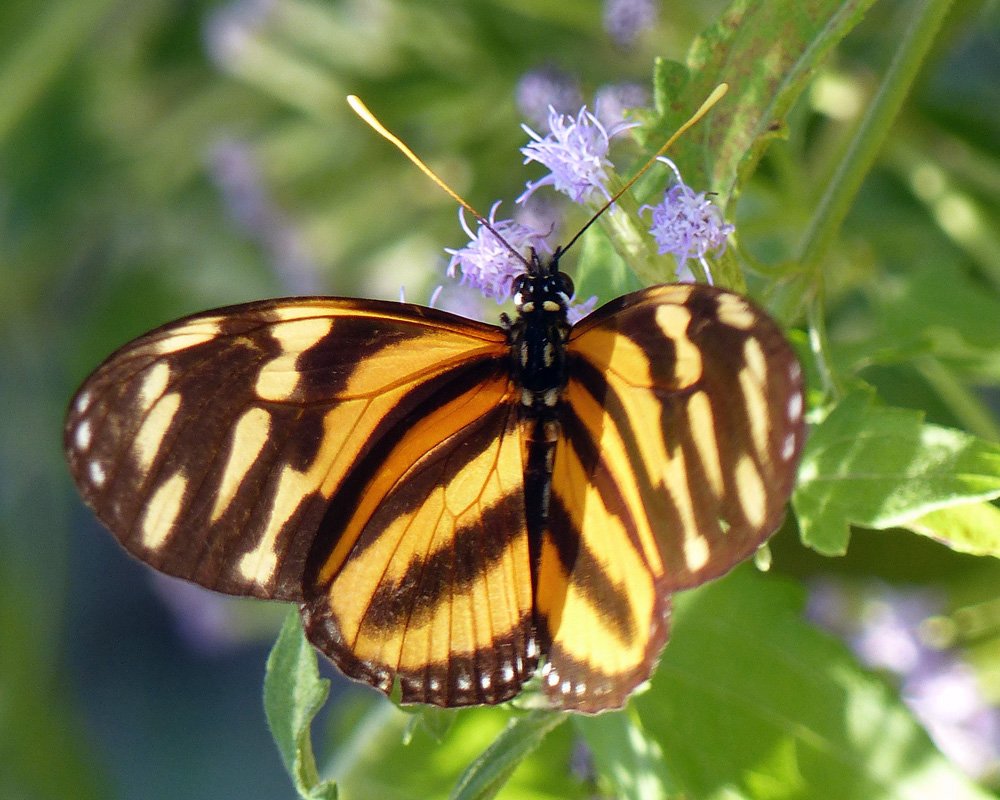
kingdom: Animalia
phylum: Arthropoda
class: Insecta
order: Lepidoptera
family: Nymphalidae
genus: Eueides
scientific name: Eueides isabella
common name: Isabella's Heliconian
